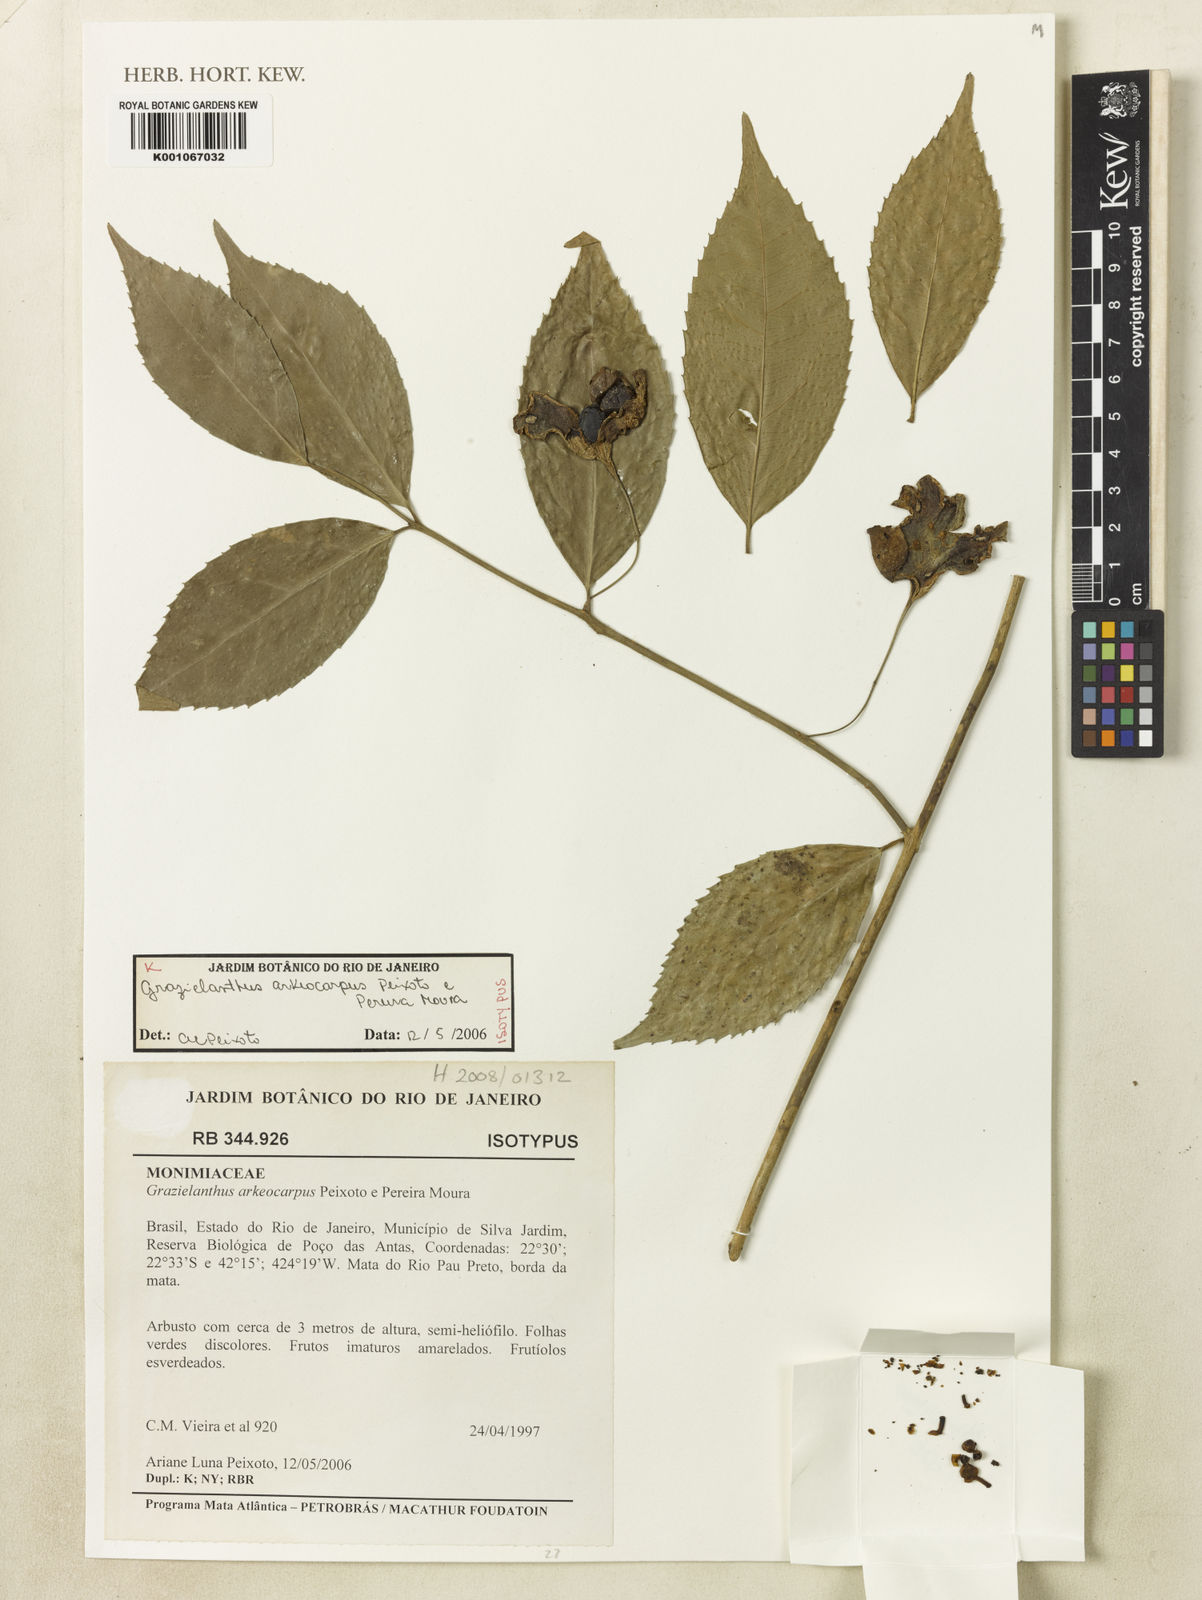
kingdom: Plantae
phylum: Tracheophyta
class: Magnoliopsida
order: Laurales
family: Monimiaceae
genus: Grazielanthus
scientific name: Grazielanthus arkeocarpus
